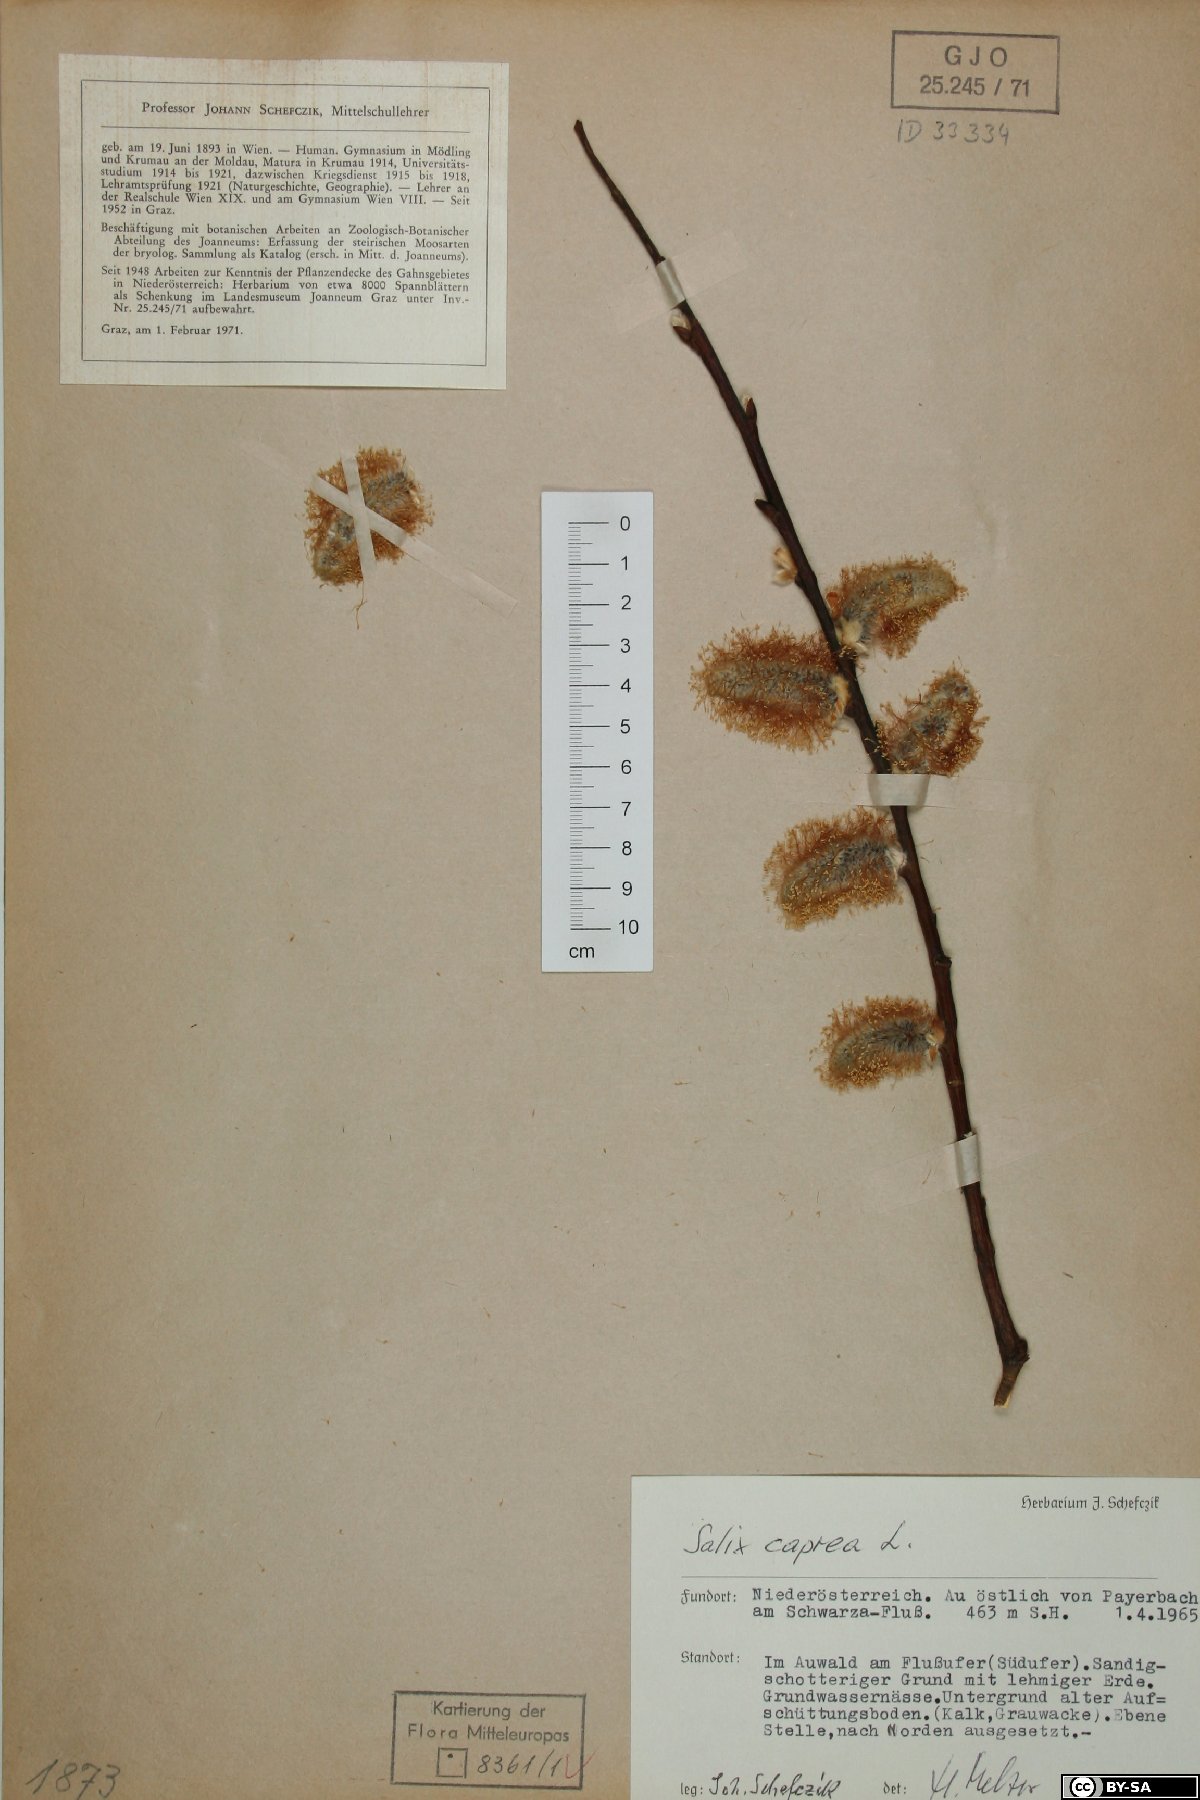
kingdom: Plantae
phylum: Tracheophyta
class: Magnoliopsida
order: Malpighiales
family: Salicaceae
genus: Salix
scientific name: Salix caprea
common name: Goat willow
